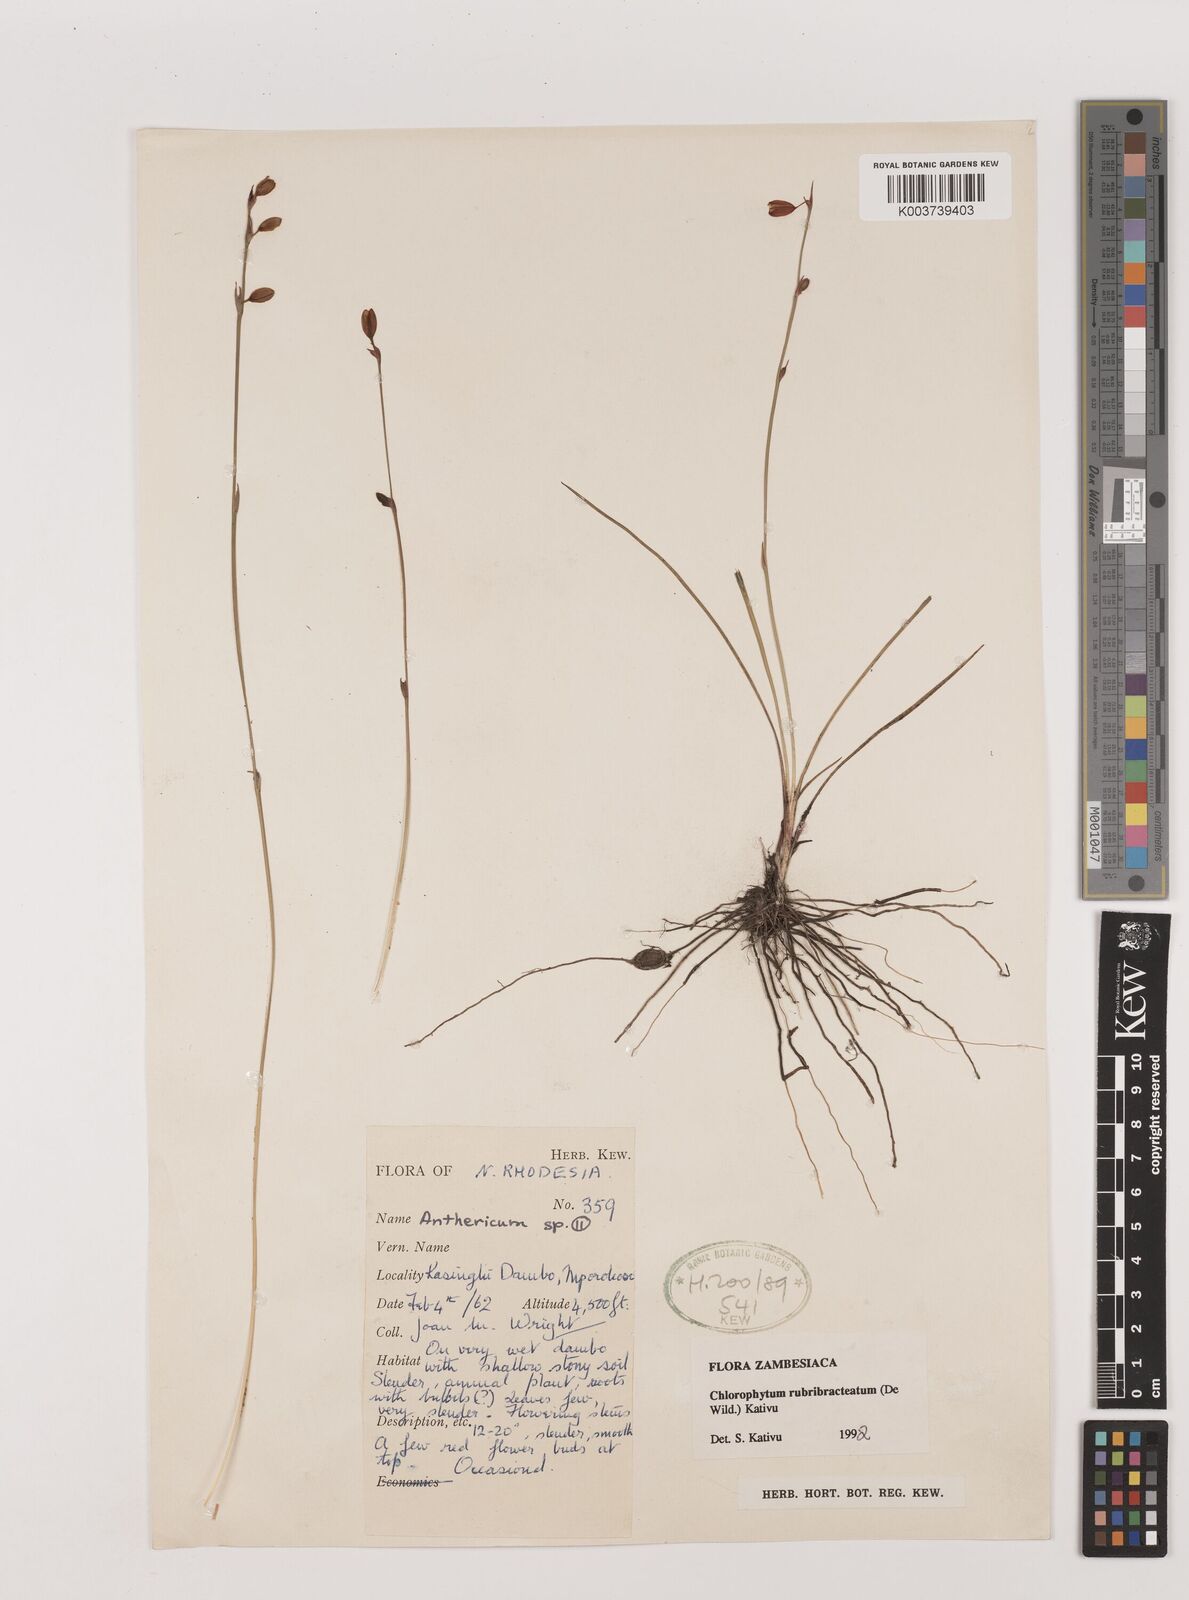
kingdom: Plantae
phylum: Tracheophyta
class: Liliopsida
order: Asparagales
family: Asparagaceae
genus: Chlorophytum
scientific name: Chlorophytum rubribracteatum
